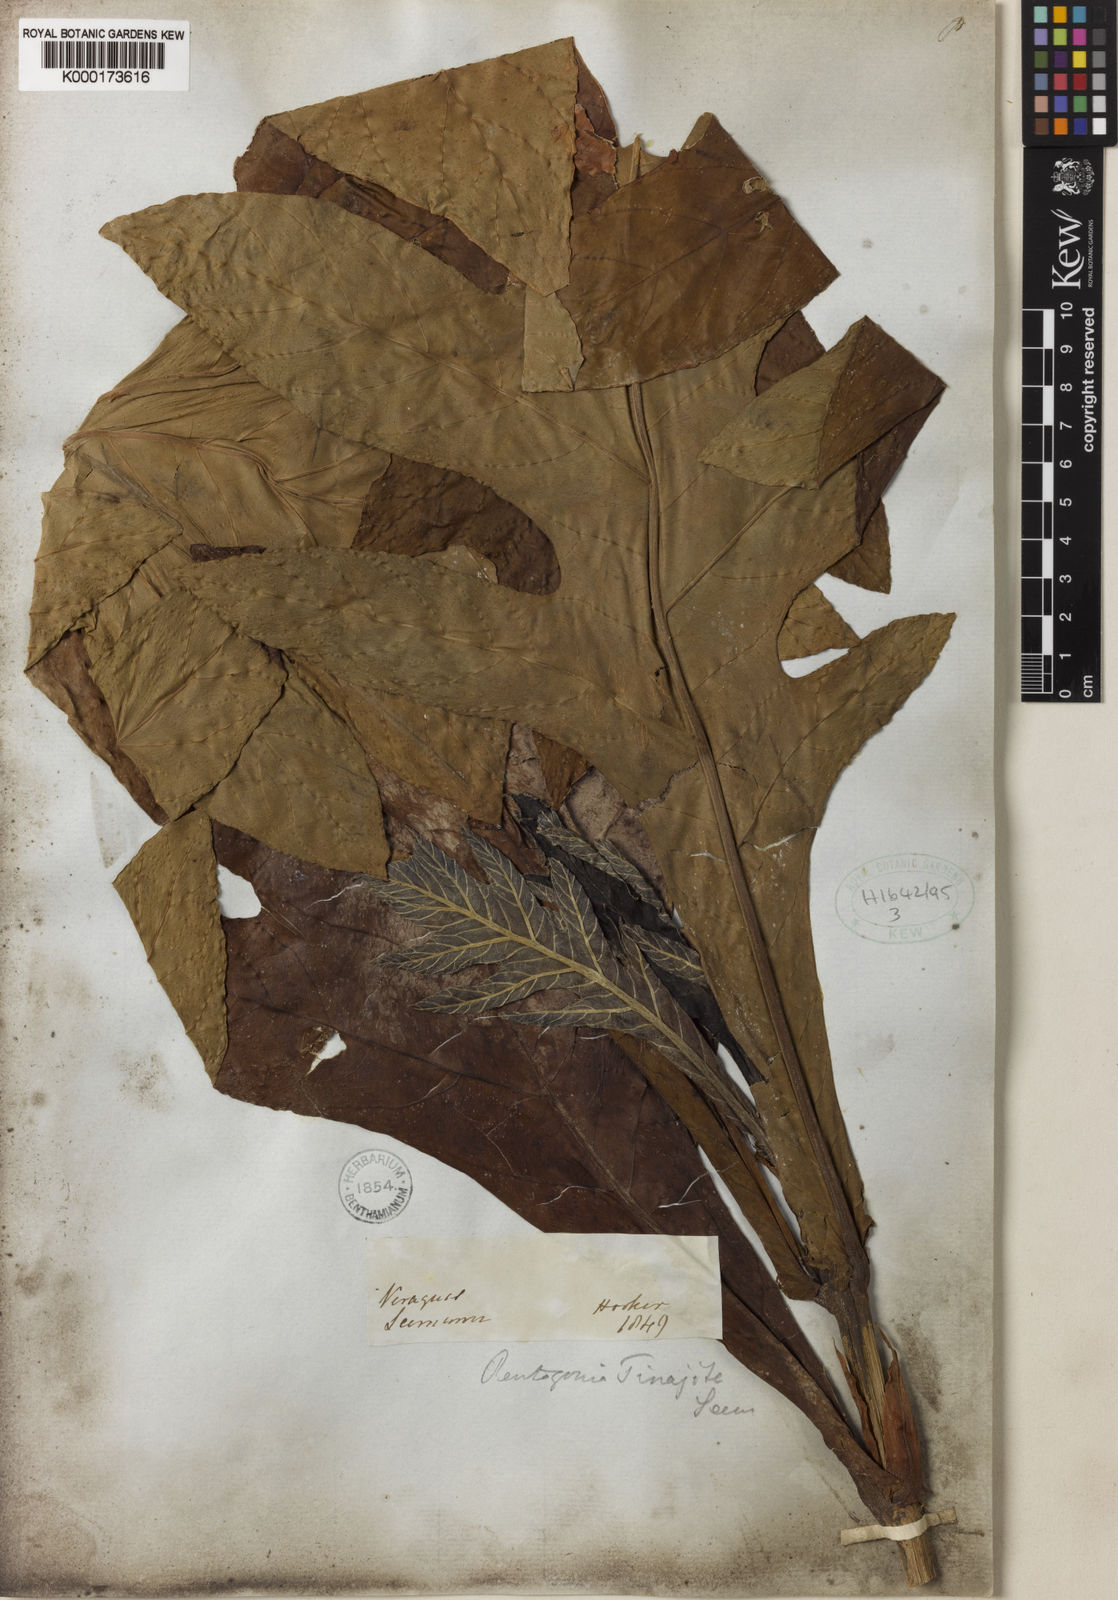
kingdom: Plantae
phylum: Tracheophyta
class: Magnoliopsida
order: Gentianales
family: Rubiaceae
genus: Pentagonia
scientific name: Pentagonia tinajita
